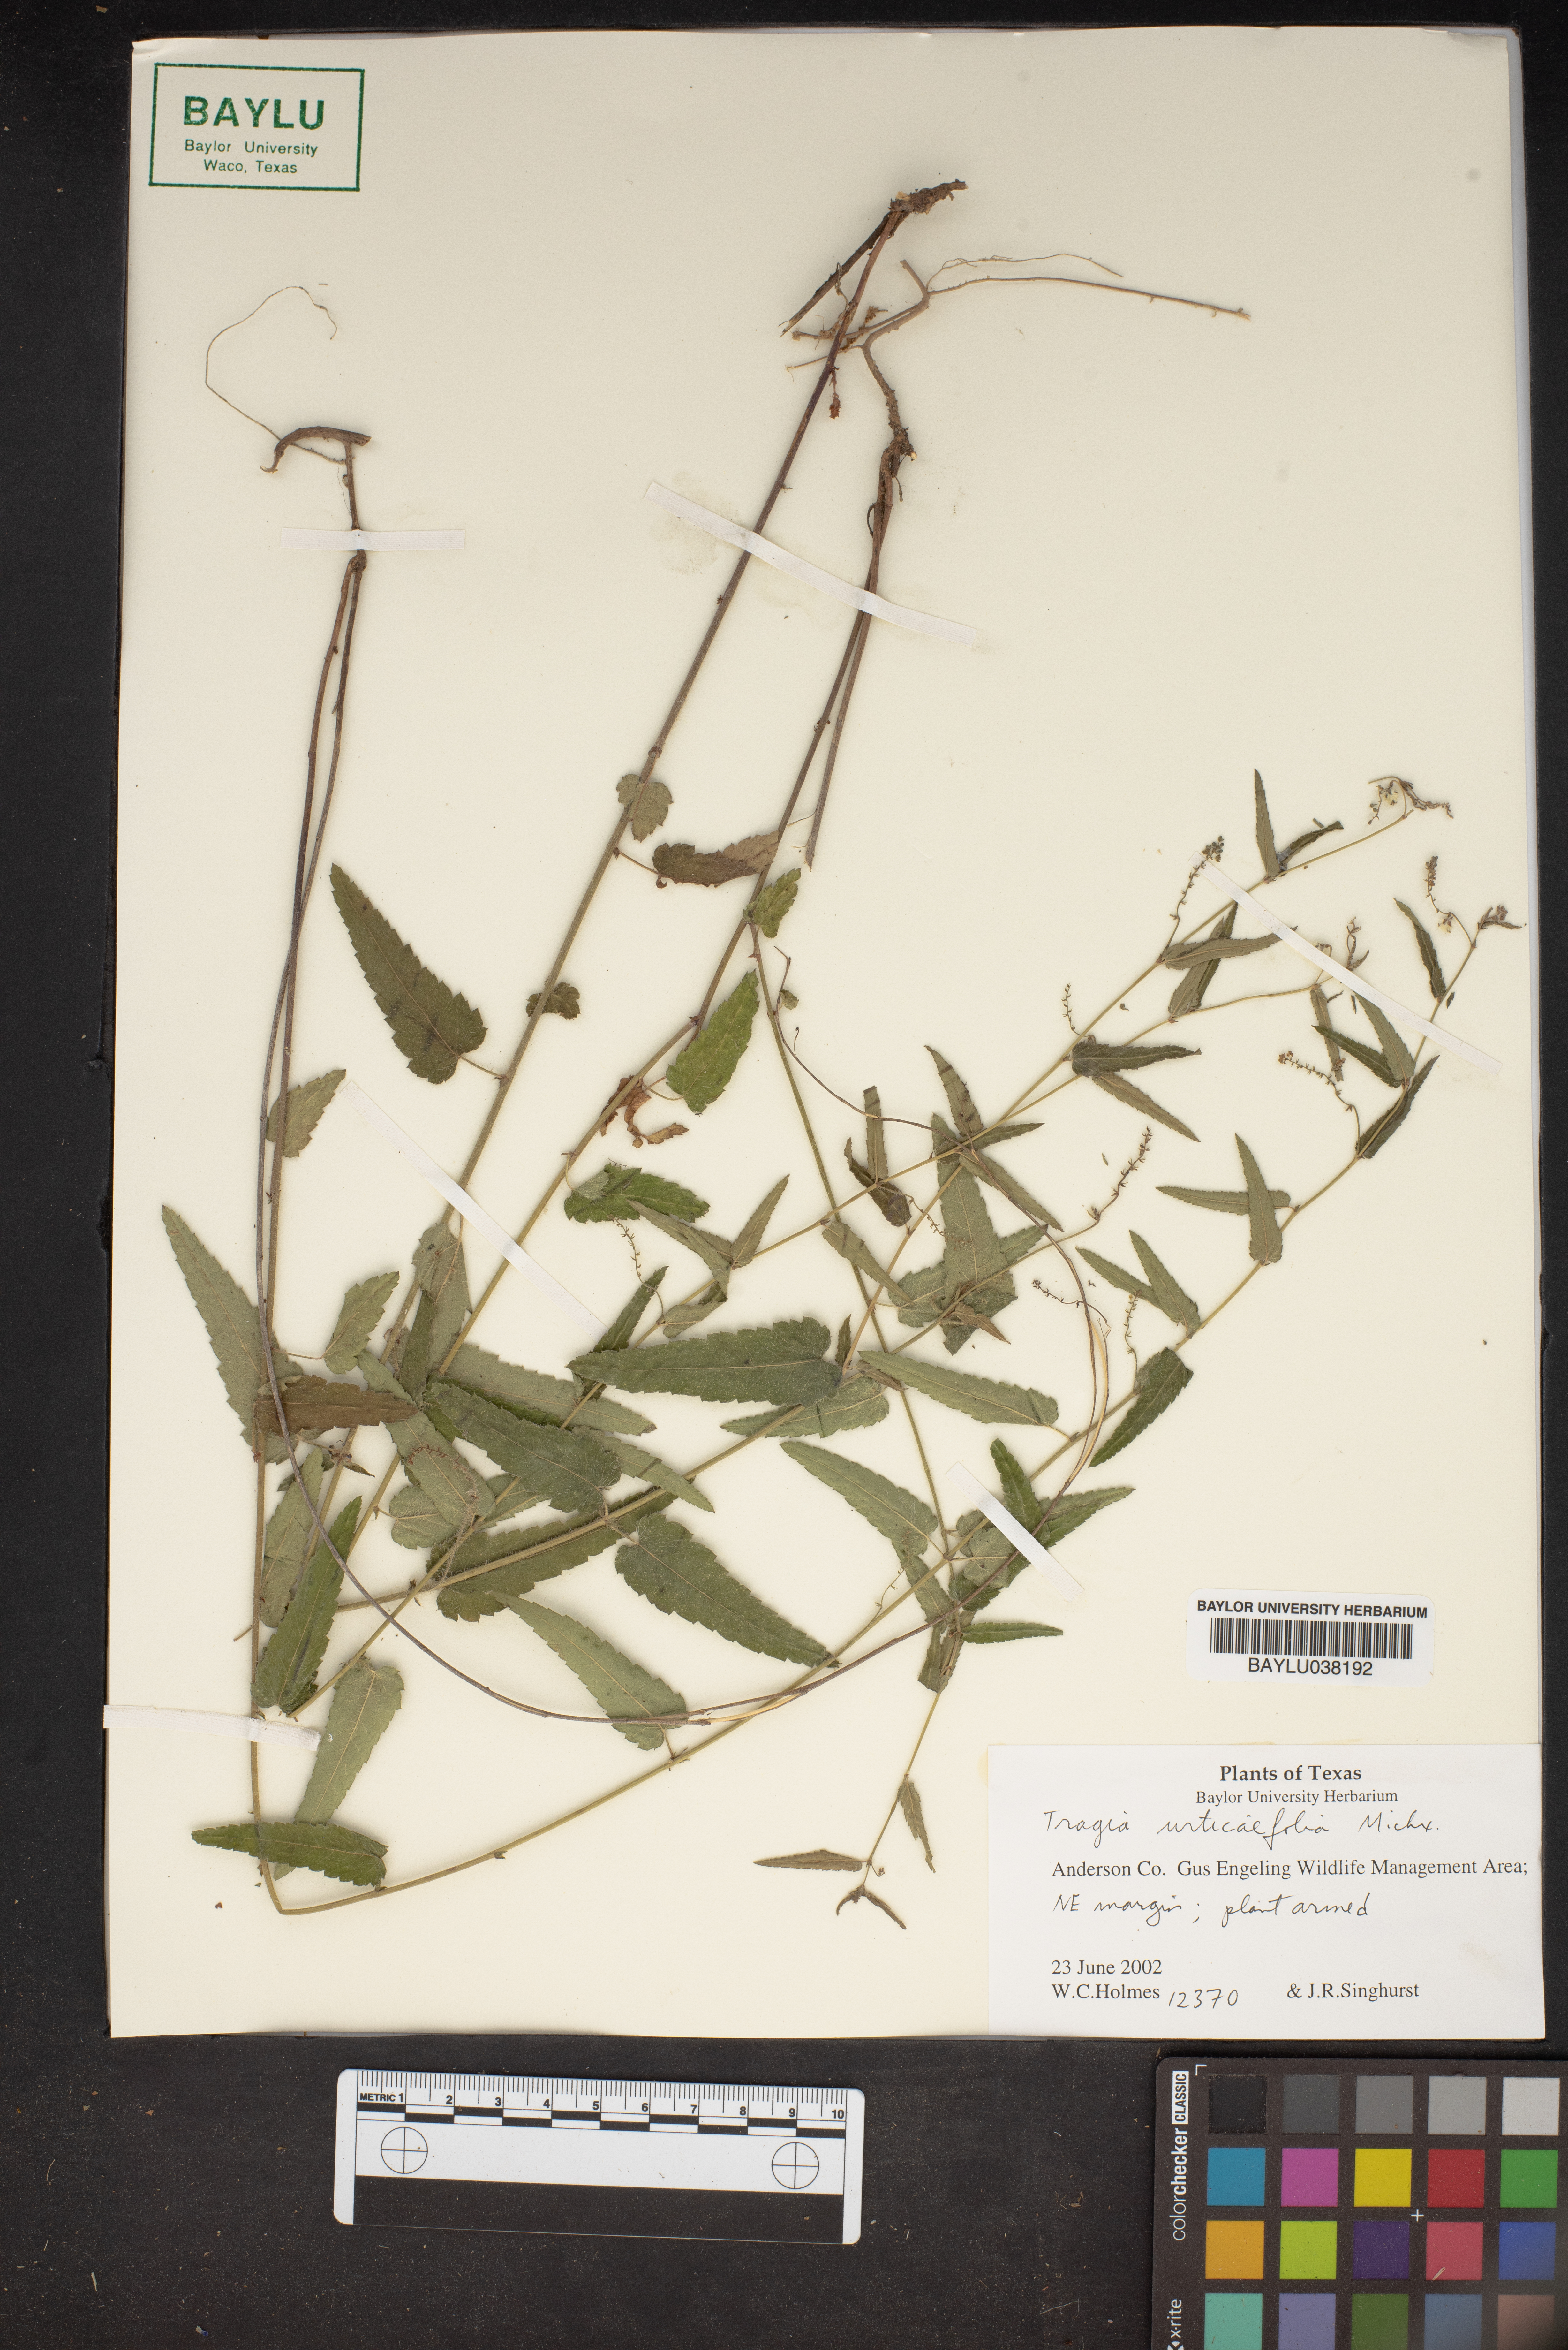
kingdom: Plantae
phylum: Tracheophyta
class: Magnoliopsida
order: Malpighiales
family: Euphorbiaceae
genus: Tragia
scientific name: Tragia urticifolia
